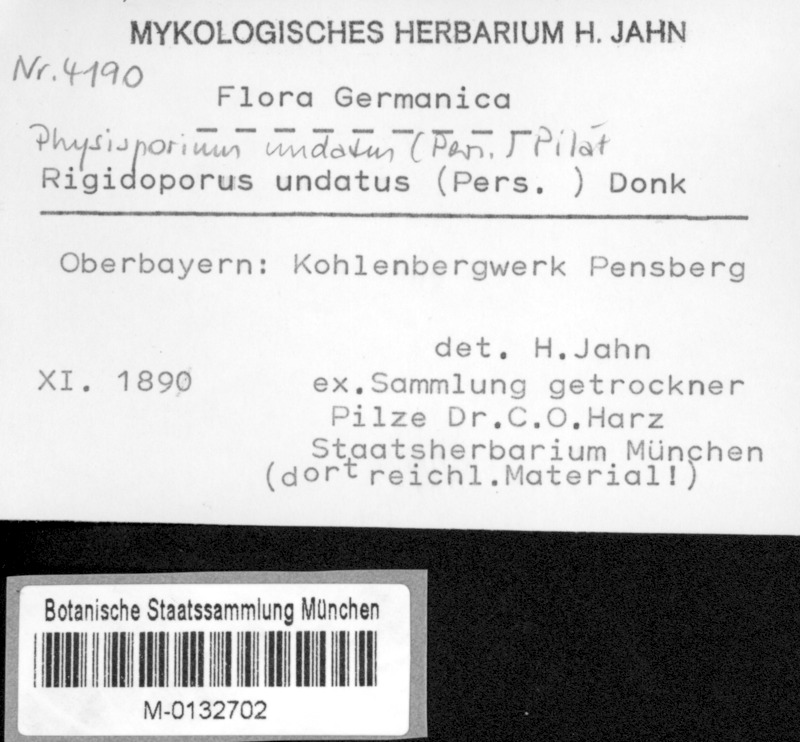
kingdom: Fungi
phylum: Basidiomycota
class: Agaricomycetes
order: Polyporales
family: Meripilaceae
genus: Rigidoporus
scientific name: Rigidoporus undatus
